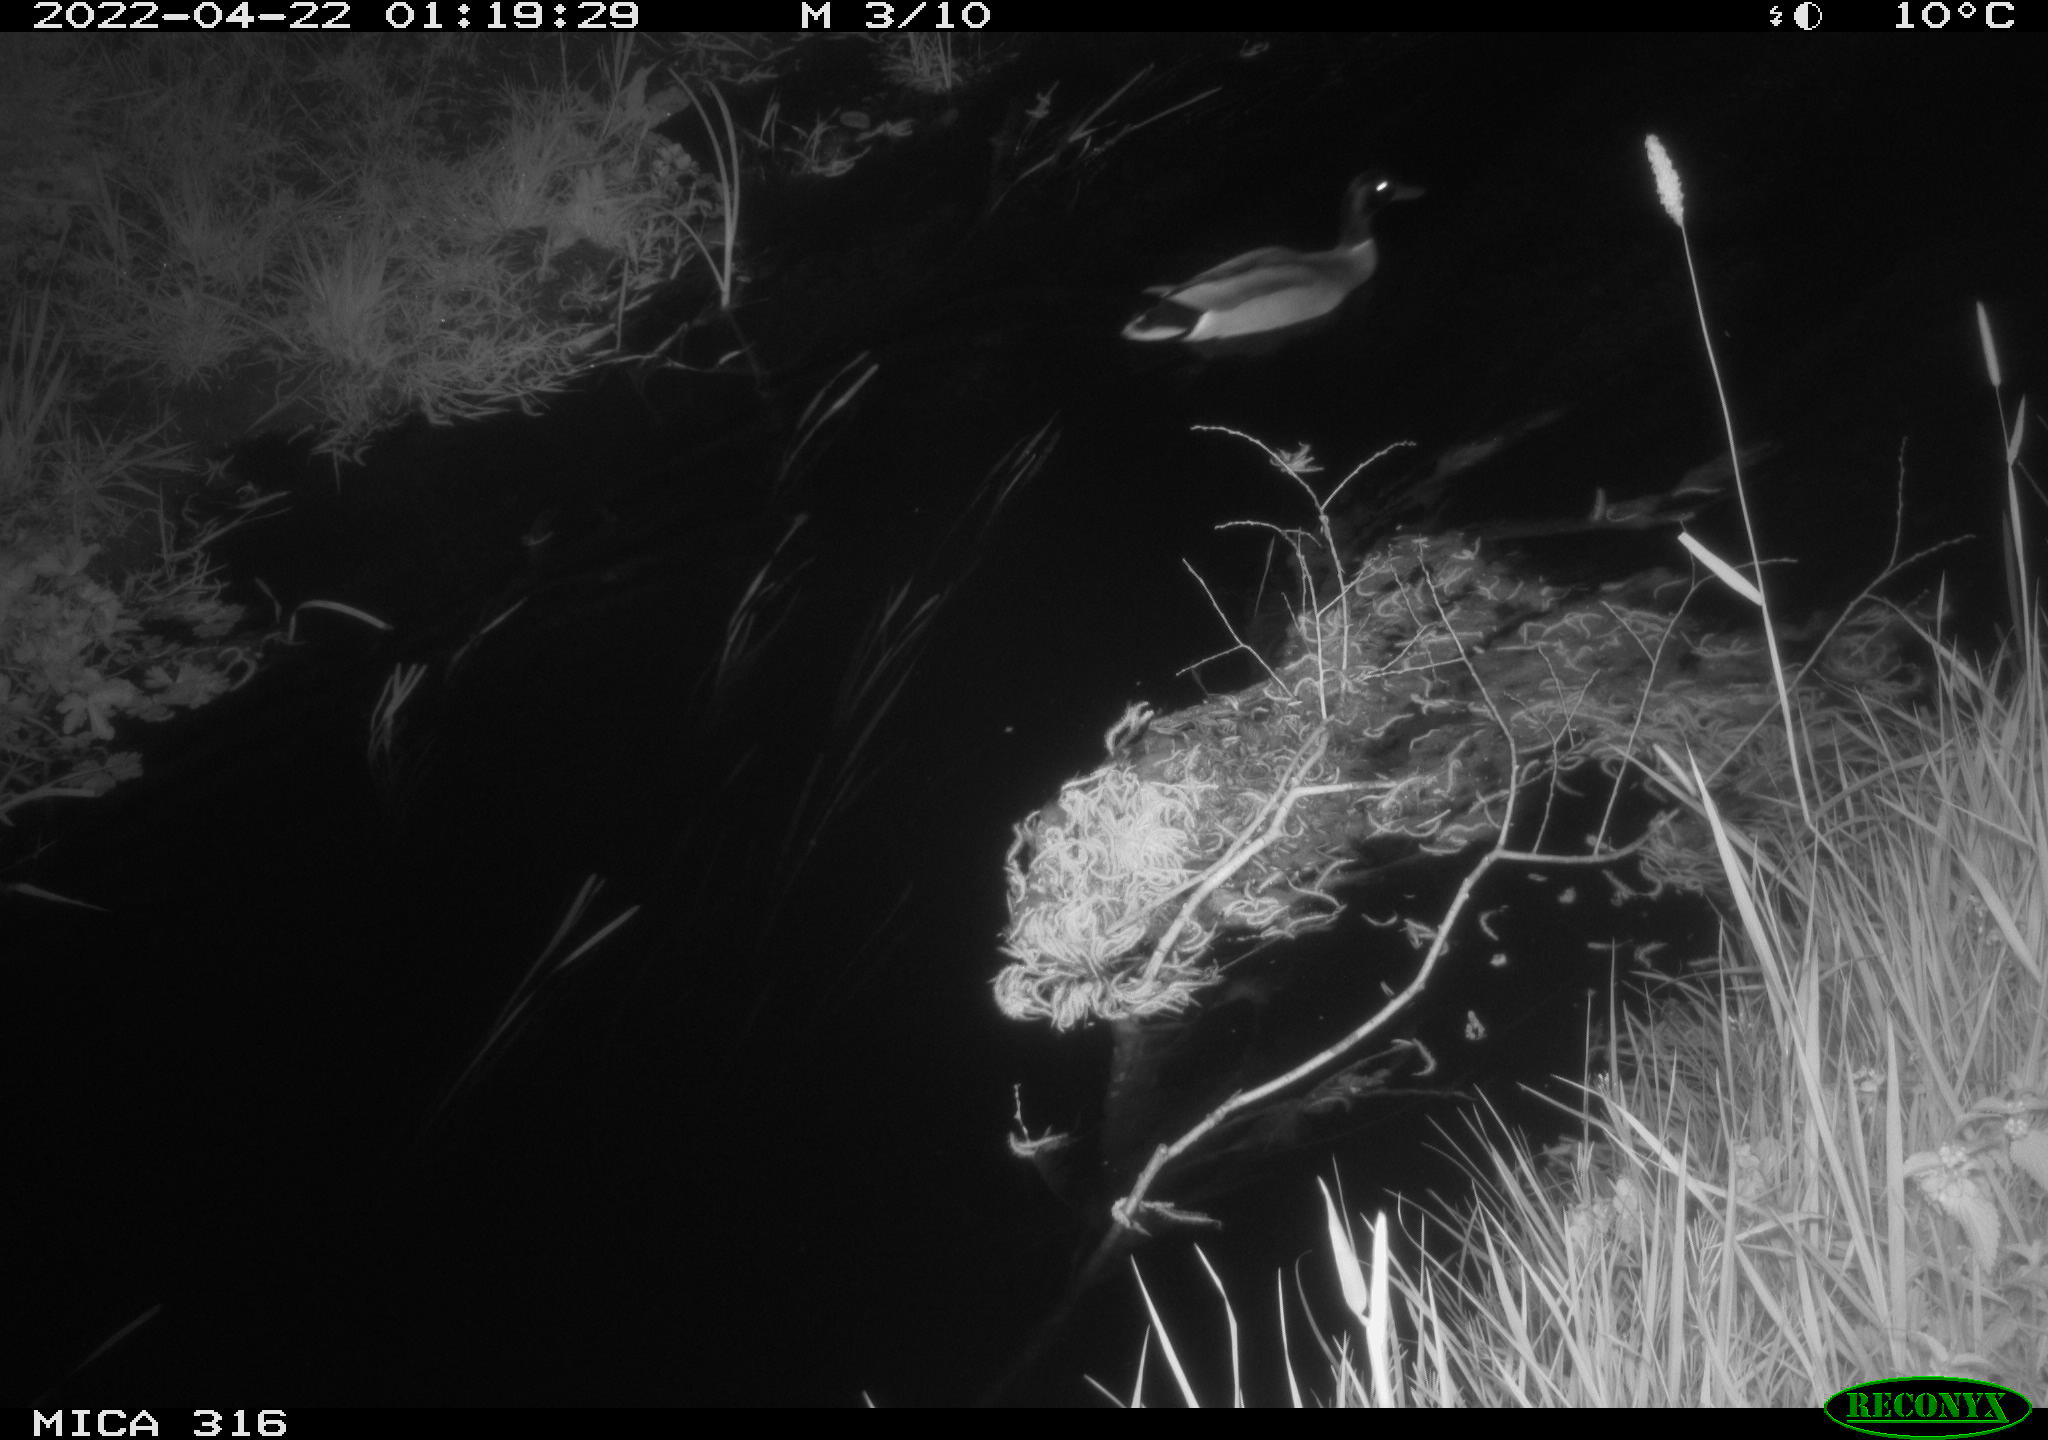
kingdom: Animalia
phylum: Chordata
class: Aves
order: Anseriformes
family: Anatidae
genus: Anas
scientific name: Anas platyrhynchos
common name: Mallard
